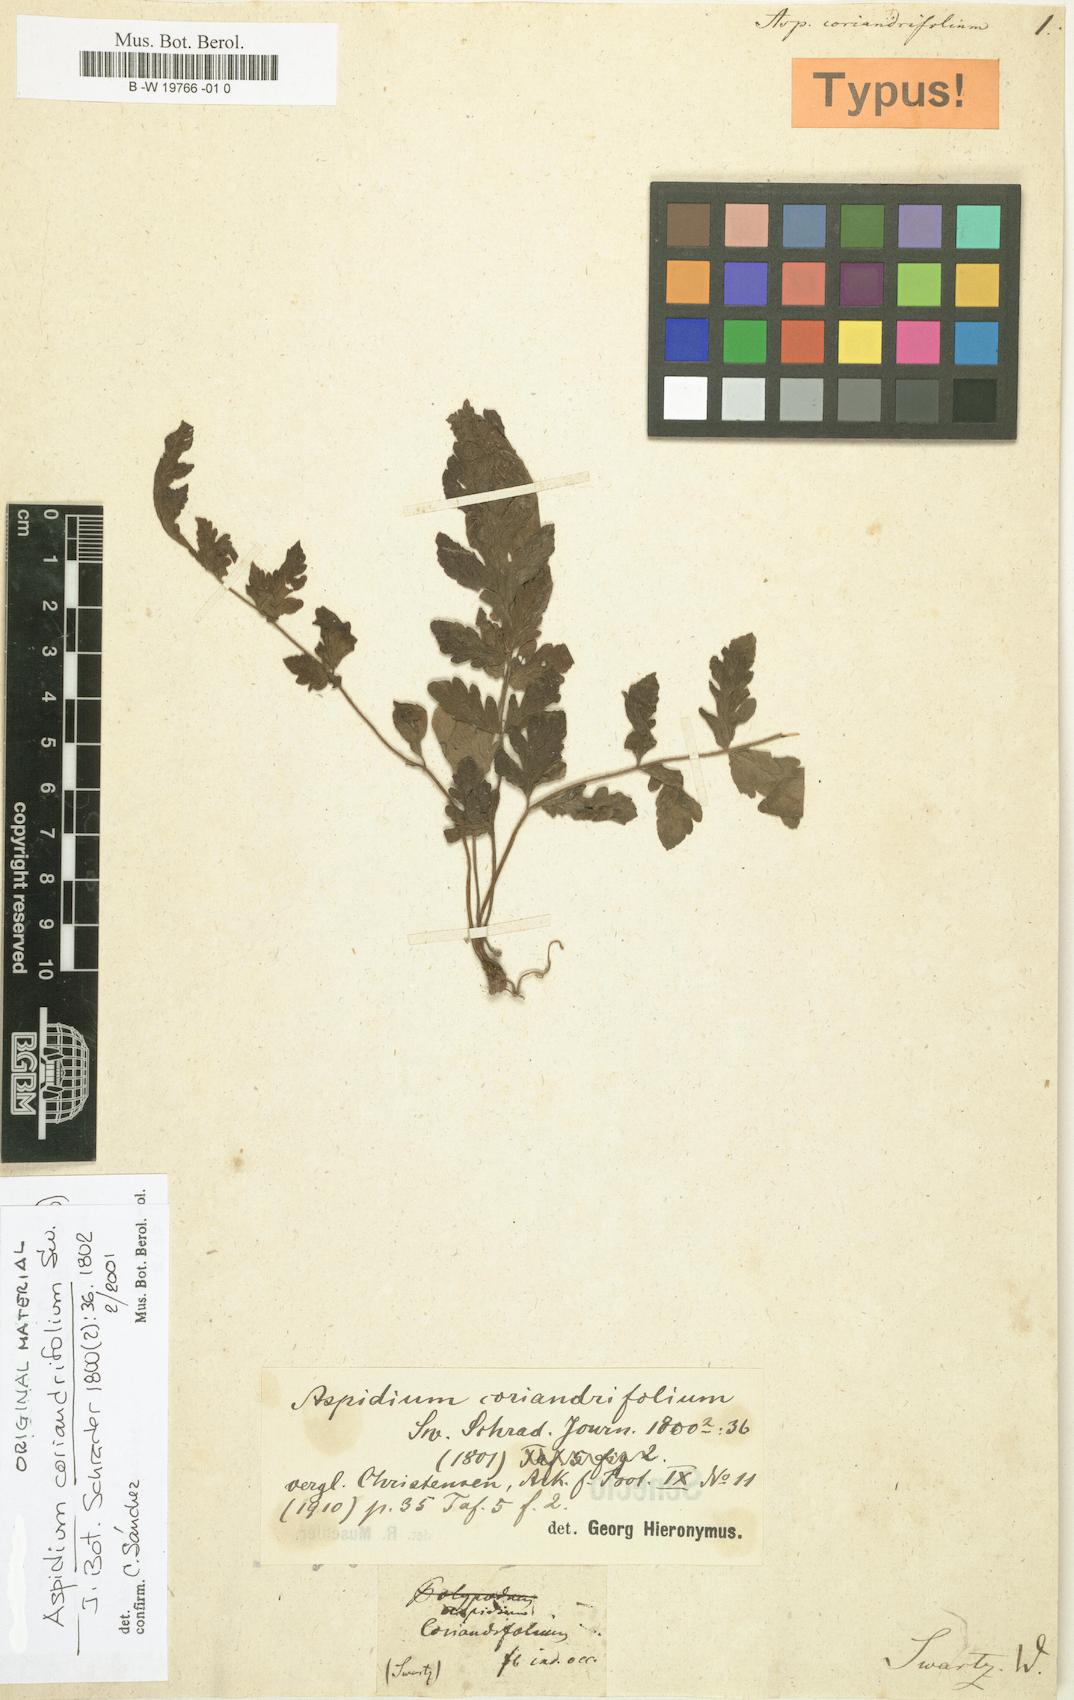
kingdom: Plantae
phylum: Tracheophyta
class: Polypodiopsida
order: Polypodiales
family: Tectariaceae
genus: Tectaria
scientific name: Tectaria coriandrifolia
